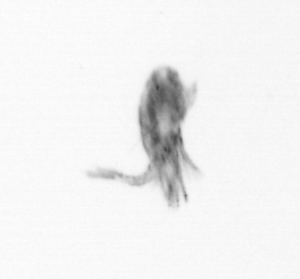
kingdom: Animalia
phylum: Arthropoda
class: Copepoda
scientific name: Copepoda
